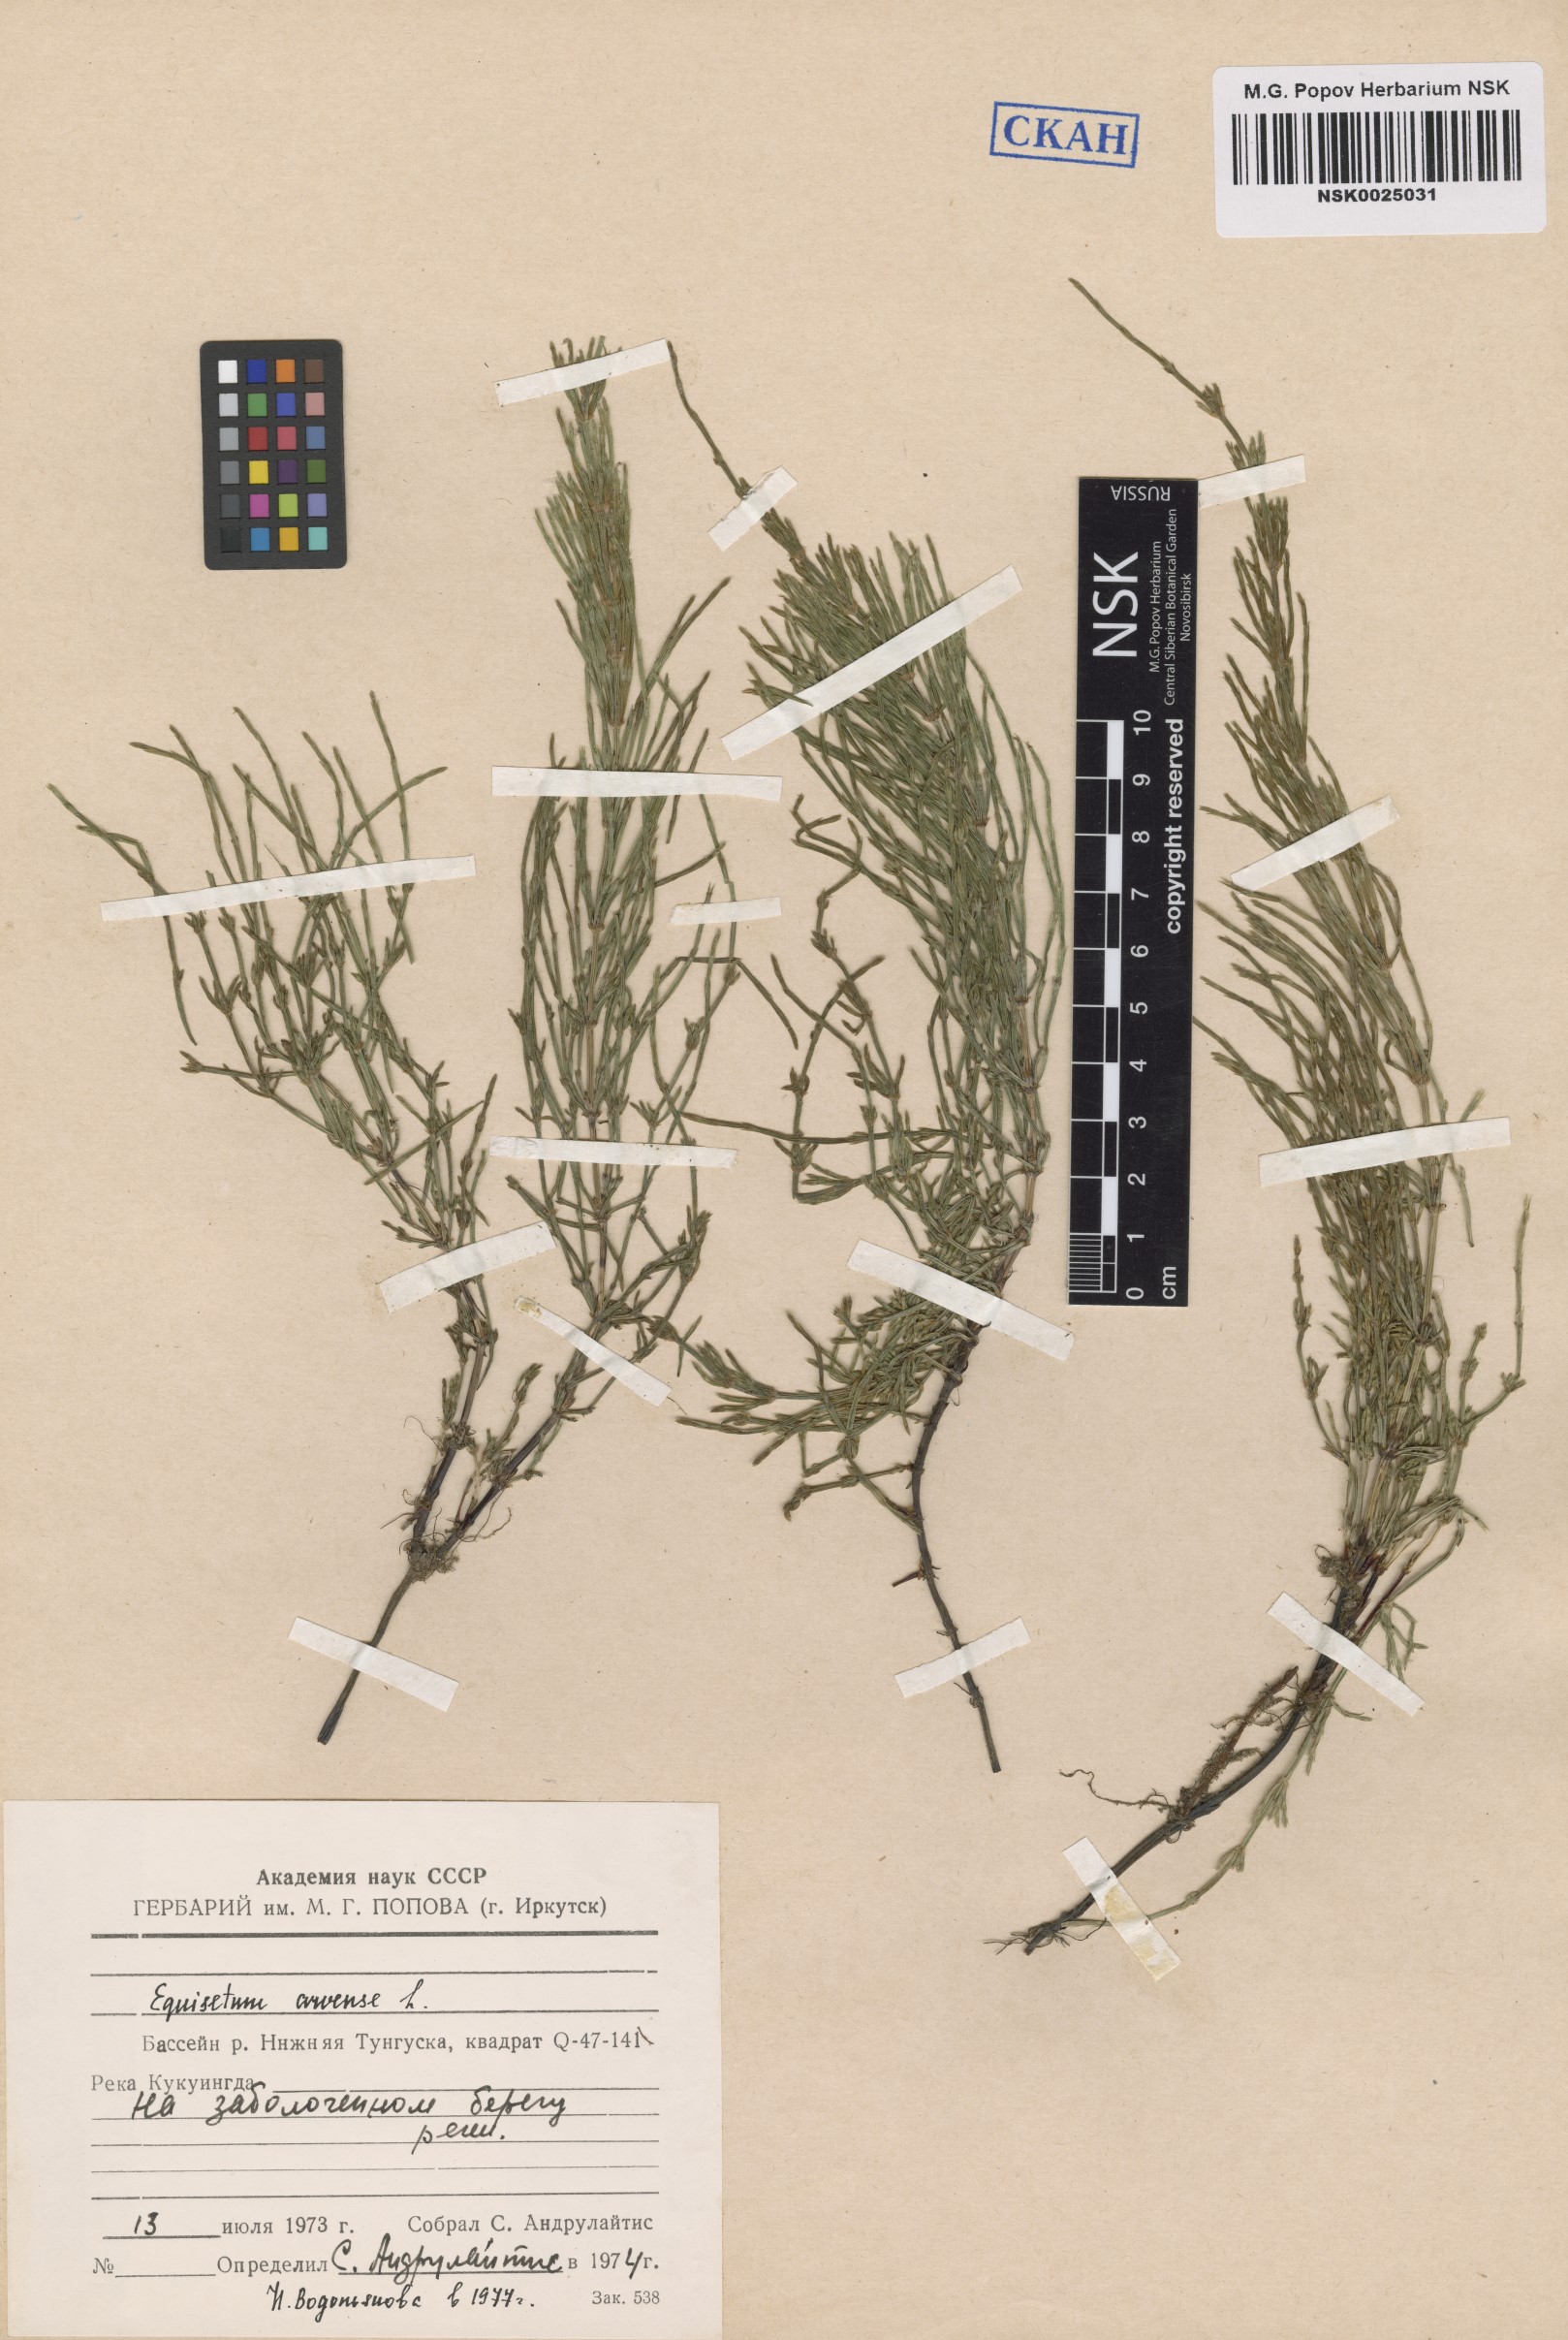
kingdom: Plantae
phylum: Tracheophyta
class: Polypodiopsida
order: Equisetales
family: Equisetaceae
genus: Equisetum
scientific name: Equisetum arvense
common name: Field horsetail
